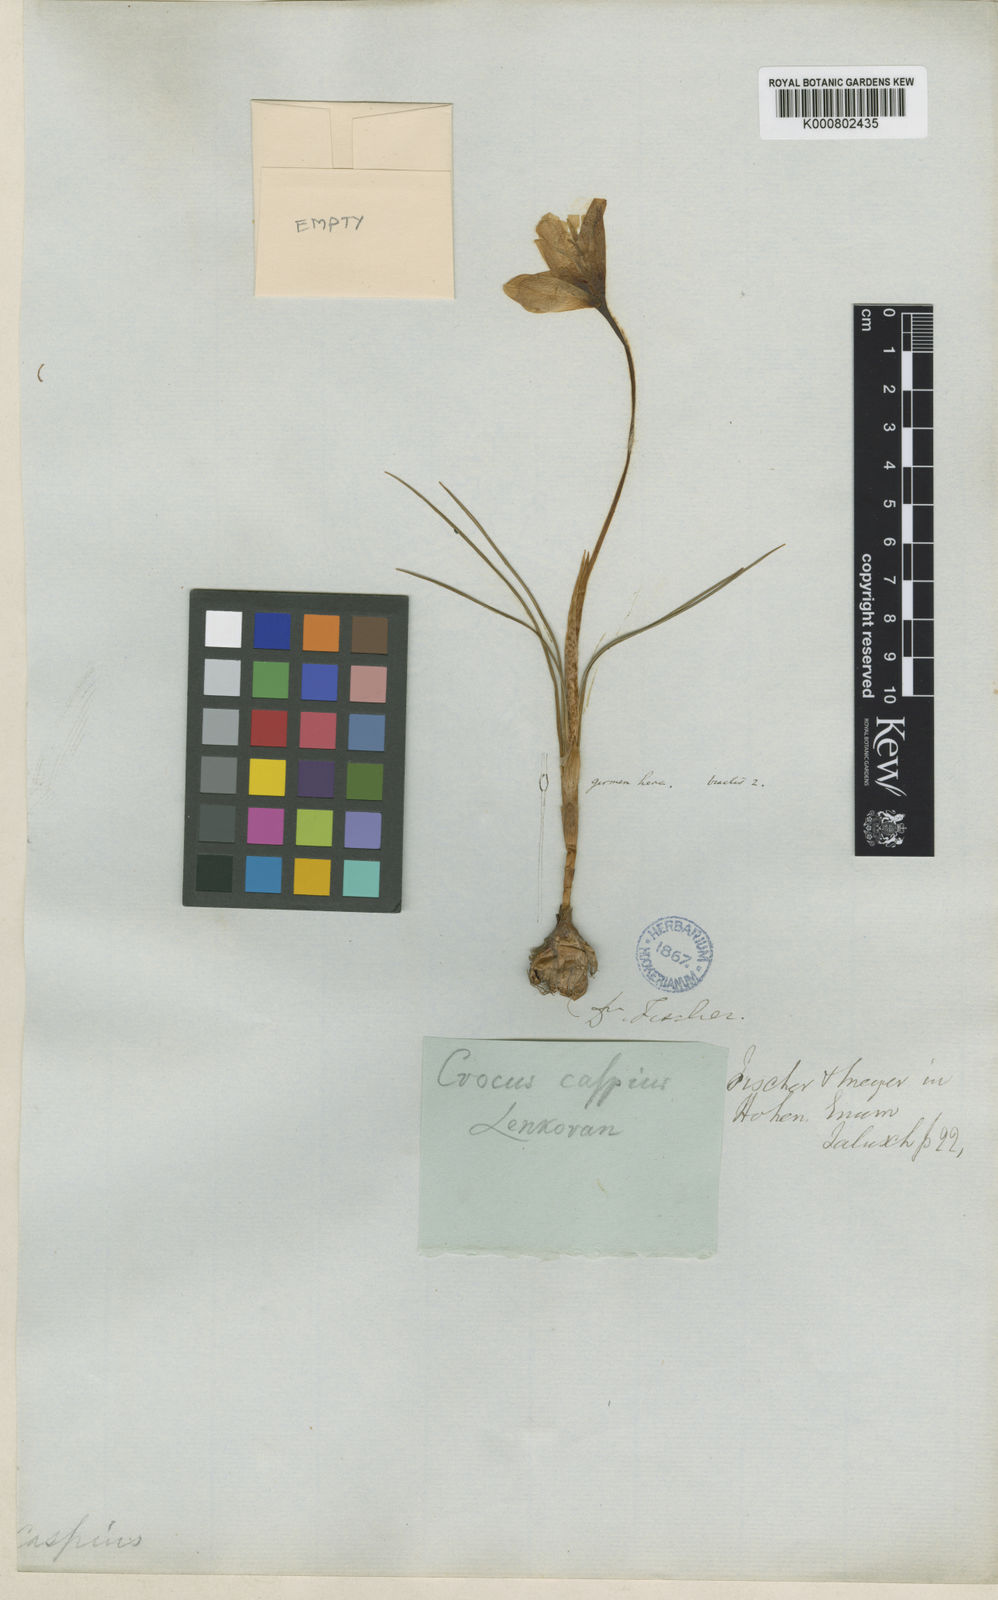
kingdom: Plantae
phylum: Tracheophyta
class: Liliopsida
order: Asparagales
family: Iridaceae
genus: Crocus
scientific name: Crocus
